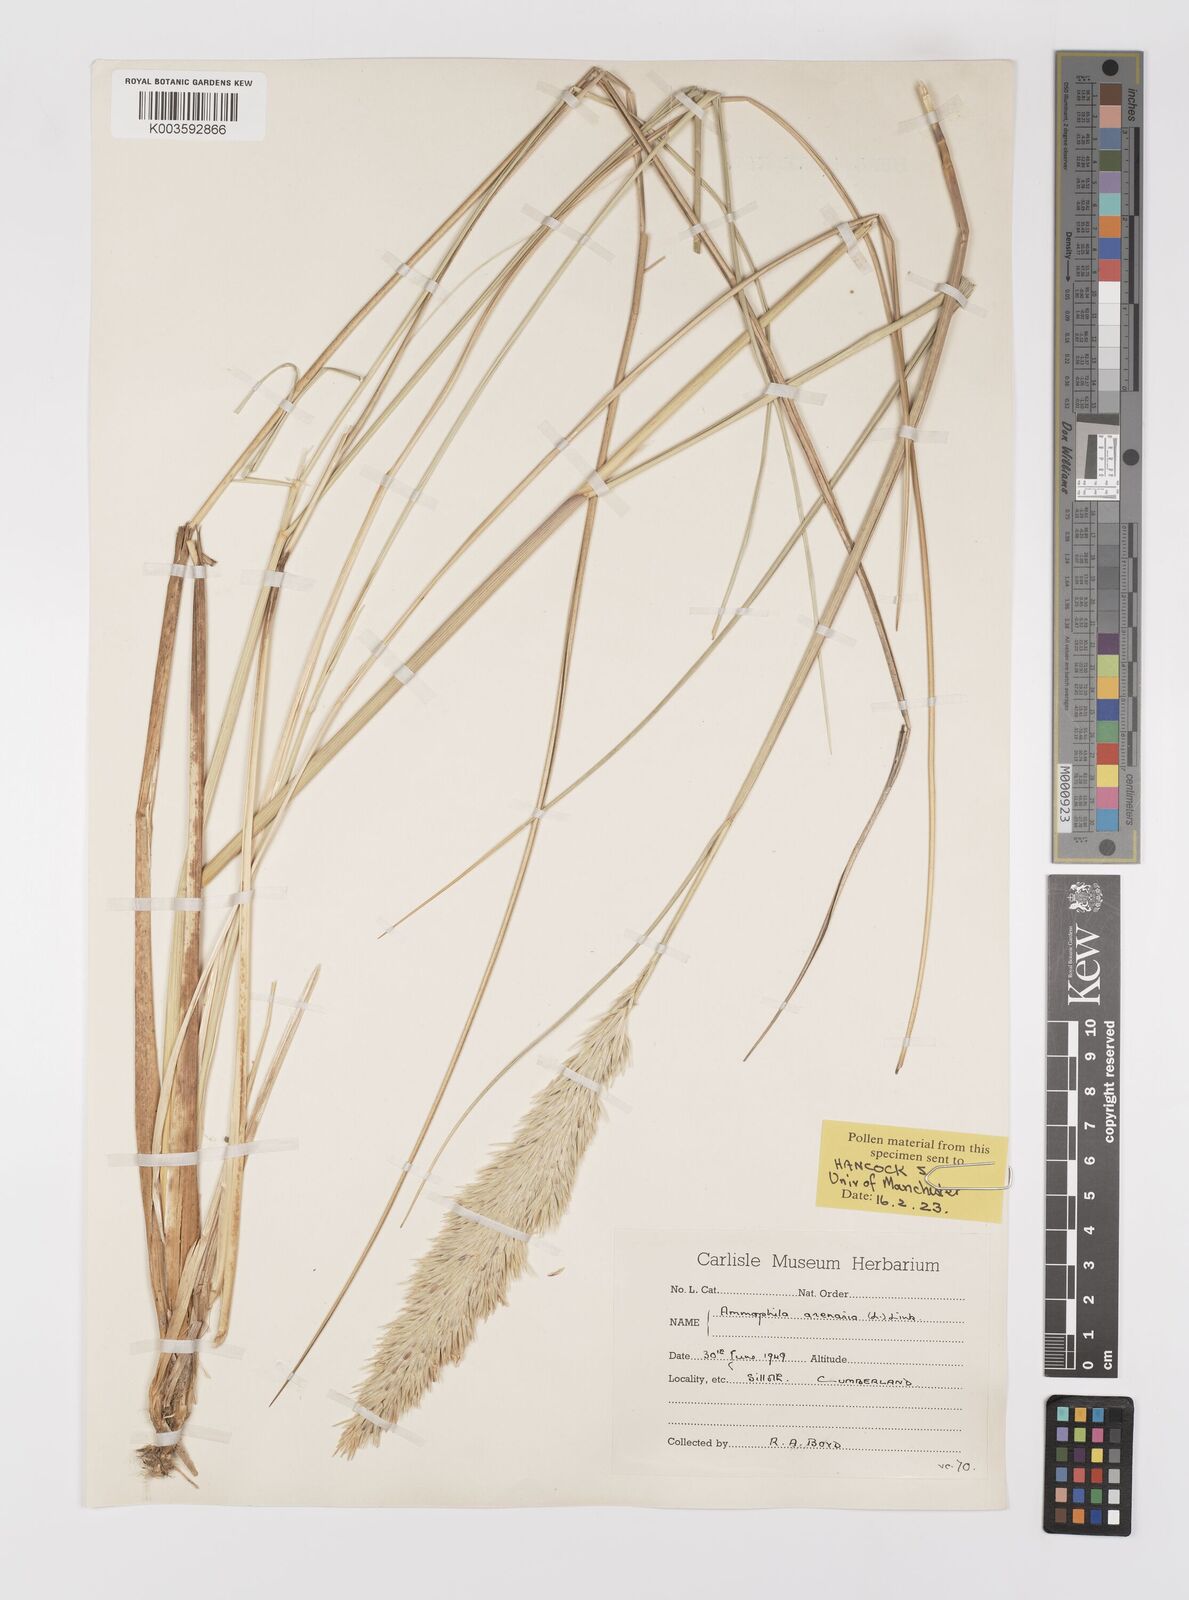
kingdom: Plantae
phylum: Tracheophyta
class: Liliopsida
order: Poales
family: Poaceae
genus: Calamagrostis
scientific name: Calamagrostis arenaria
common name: European beachgrass
